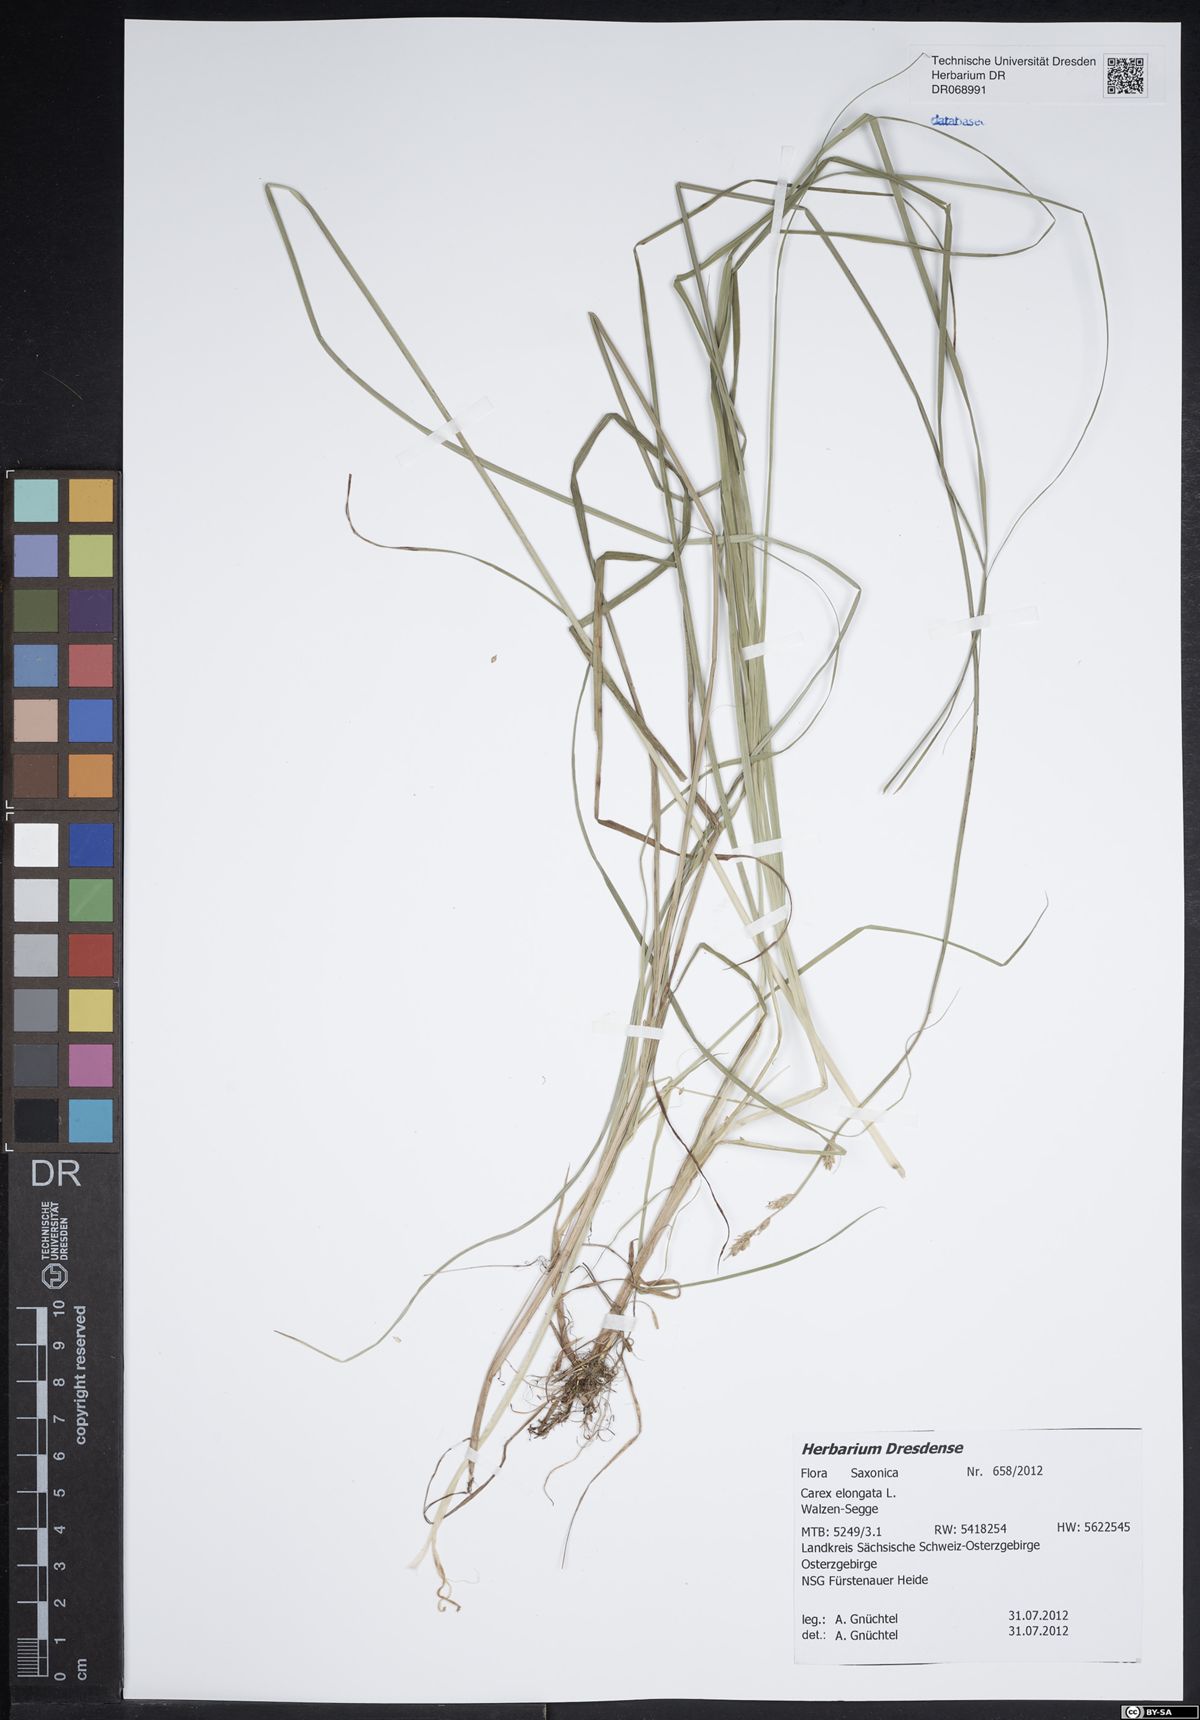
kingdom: Plantae
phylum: Tracheophyta
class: Liliopsida
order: Poales
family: Cyperaceae
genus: Carex
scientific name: Carex elongata
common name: Elongated sedge
